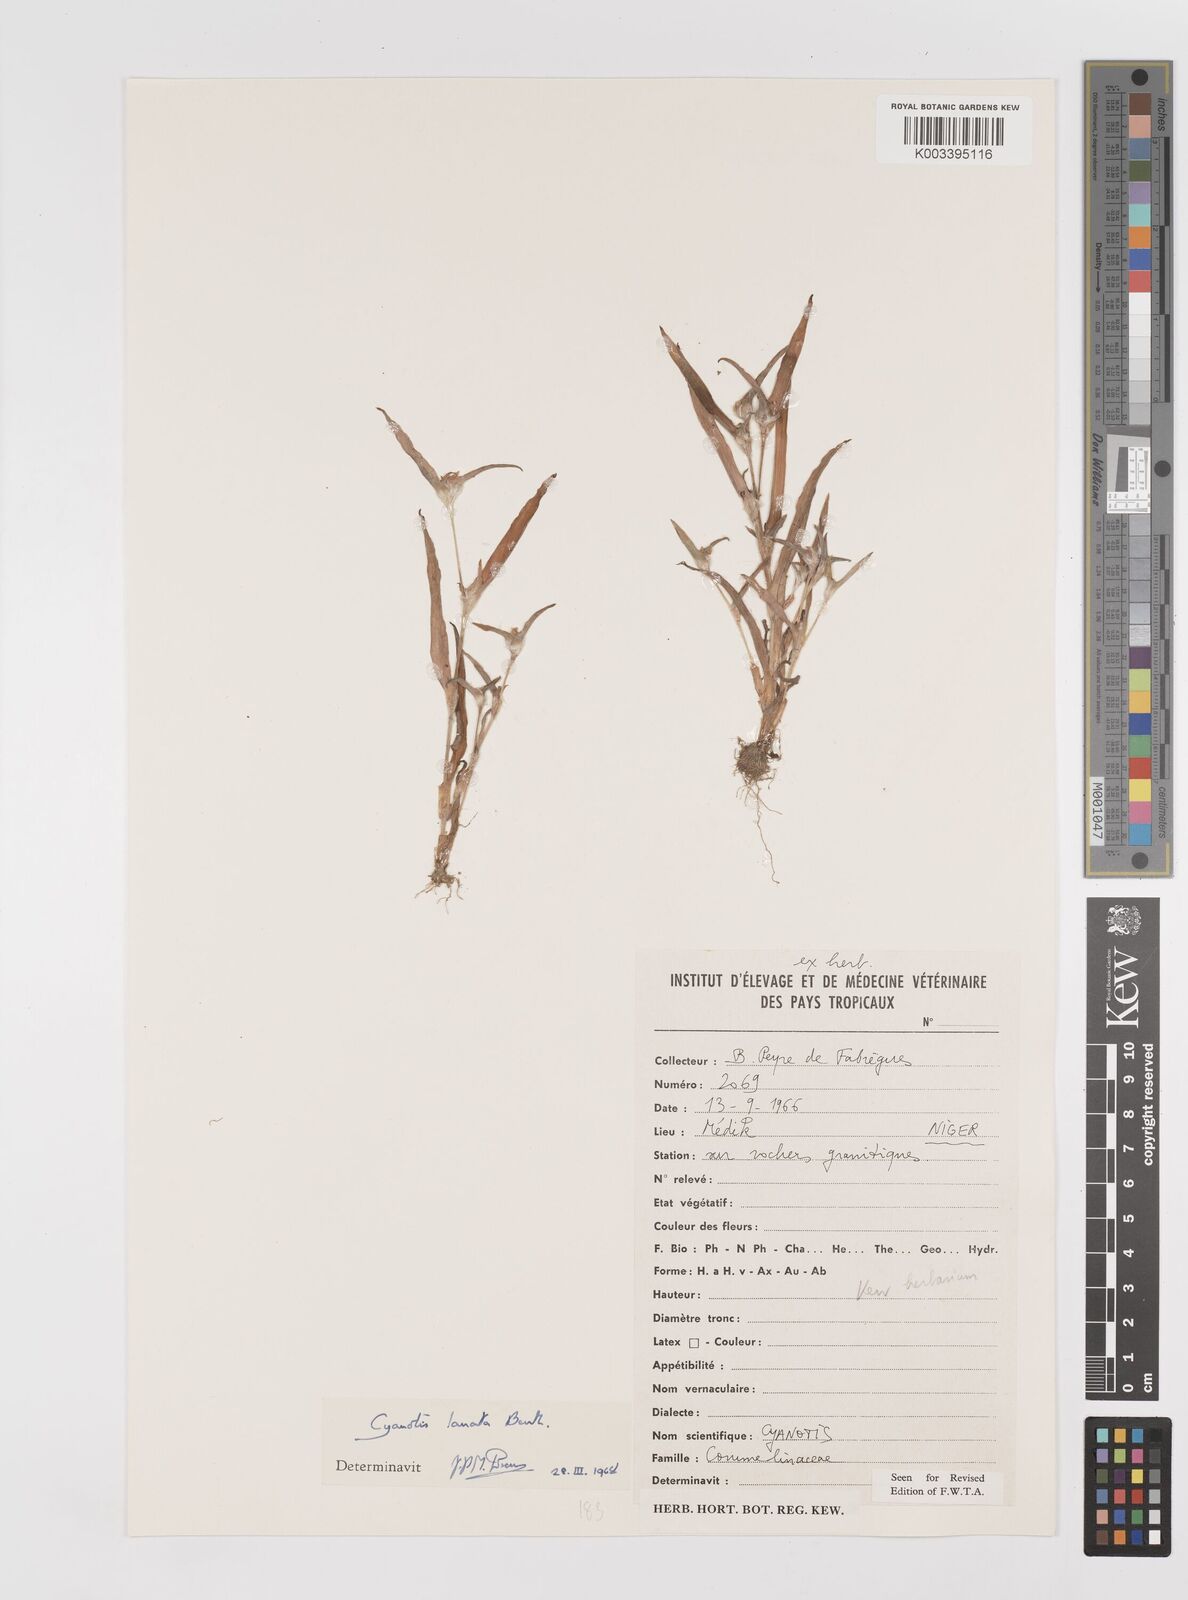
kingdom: Plantae
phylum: Tracheophyta
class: Liliopsida
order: Commelinales
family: Commelinaceae
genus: Cyanotis
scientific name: Cyanotis lanata
